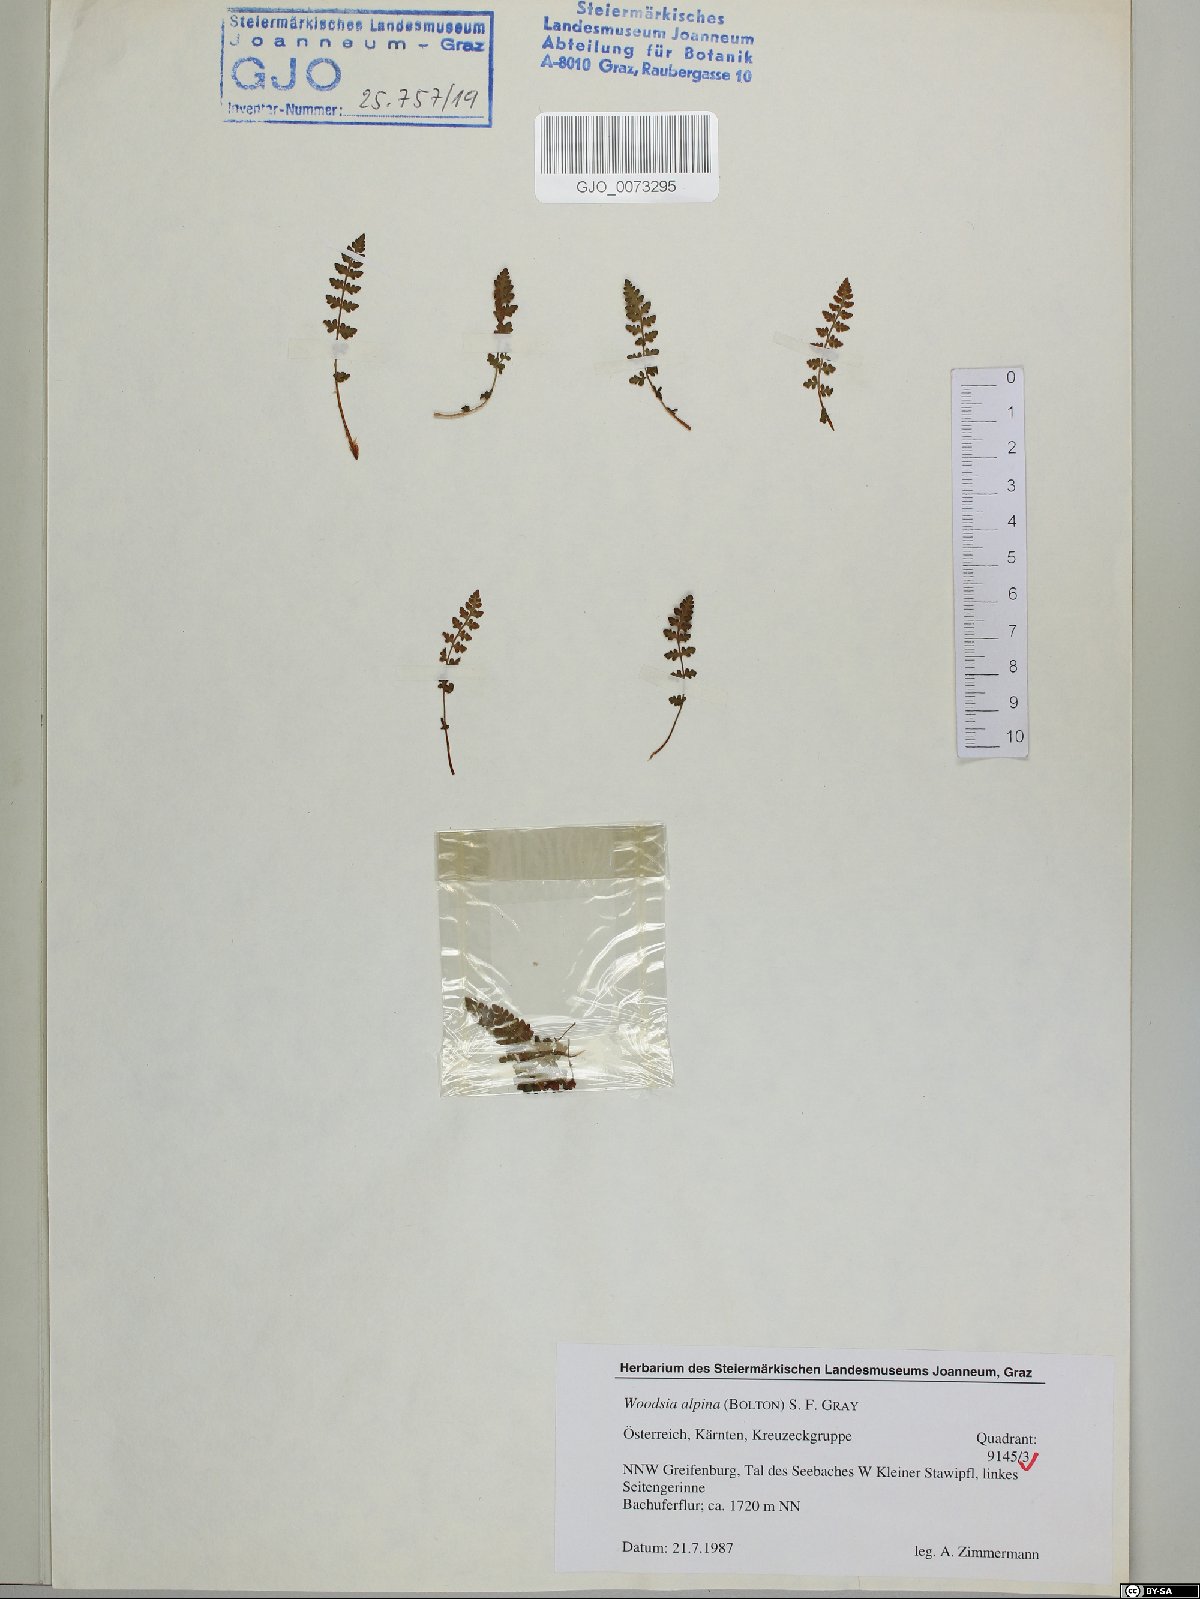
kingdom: Plantae
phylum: Tracheophyta
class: Polypodiopsida
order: Polypodiales
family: Woodsiaceae
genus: Woodsia
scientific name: Woodsia alpina
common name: Alpine woodsia
